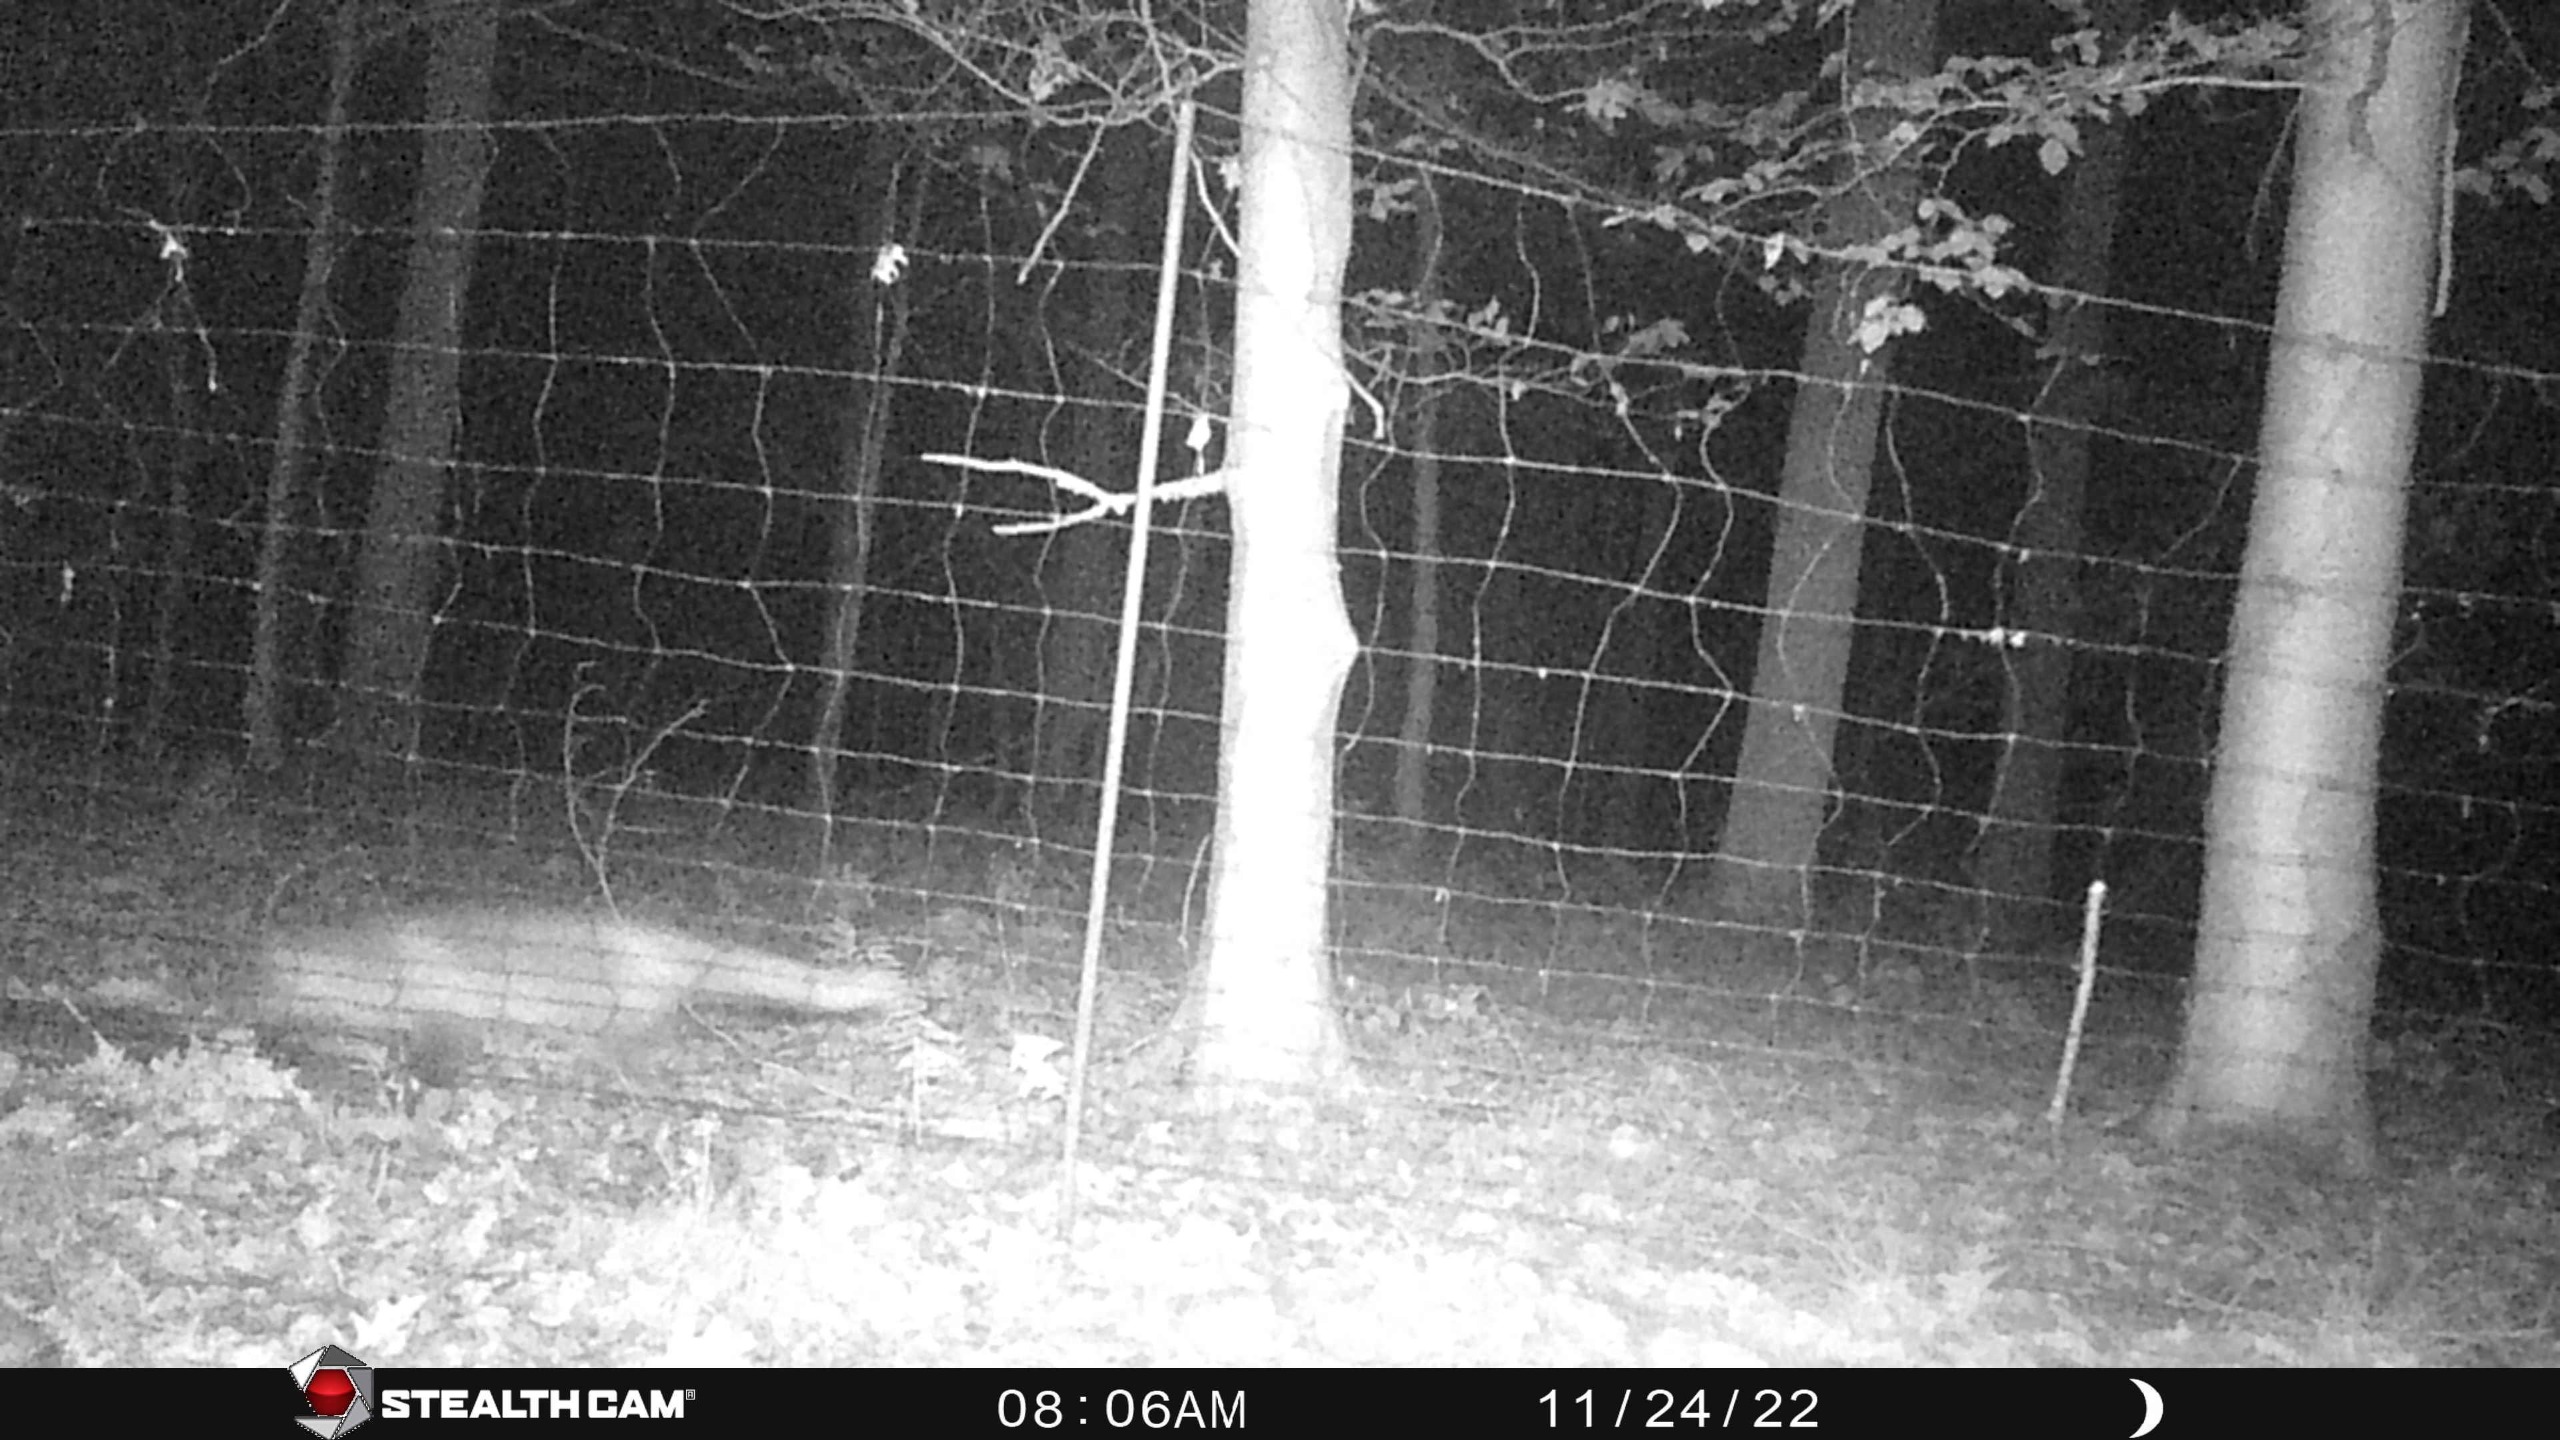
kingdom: Animalia
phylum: Chordata
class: Mammalia
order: Carnivora
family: Canidae
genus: Vulpes
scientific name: Vulpes vulpes
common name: Ræv
